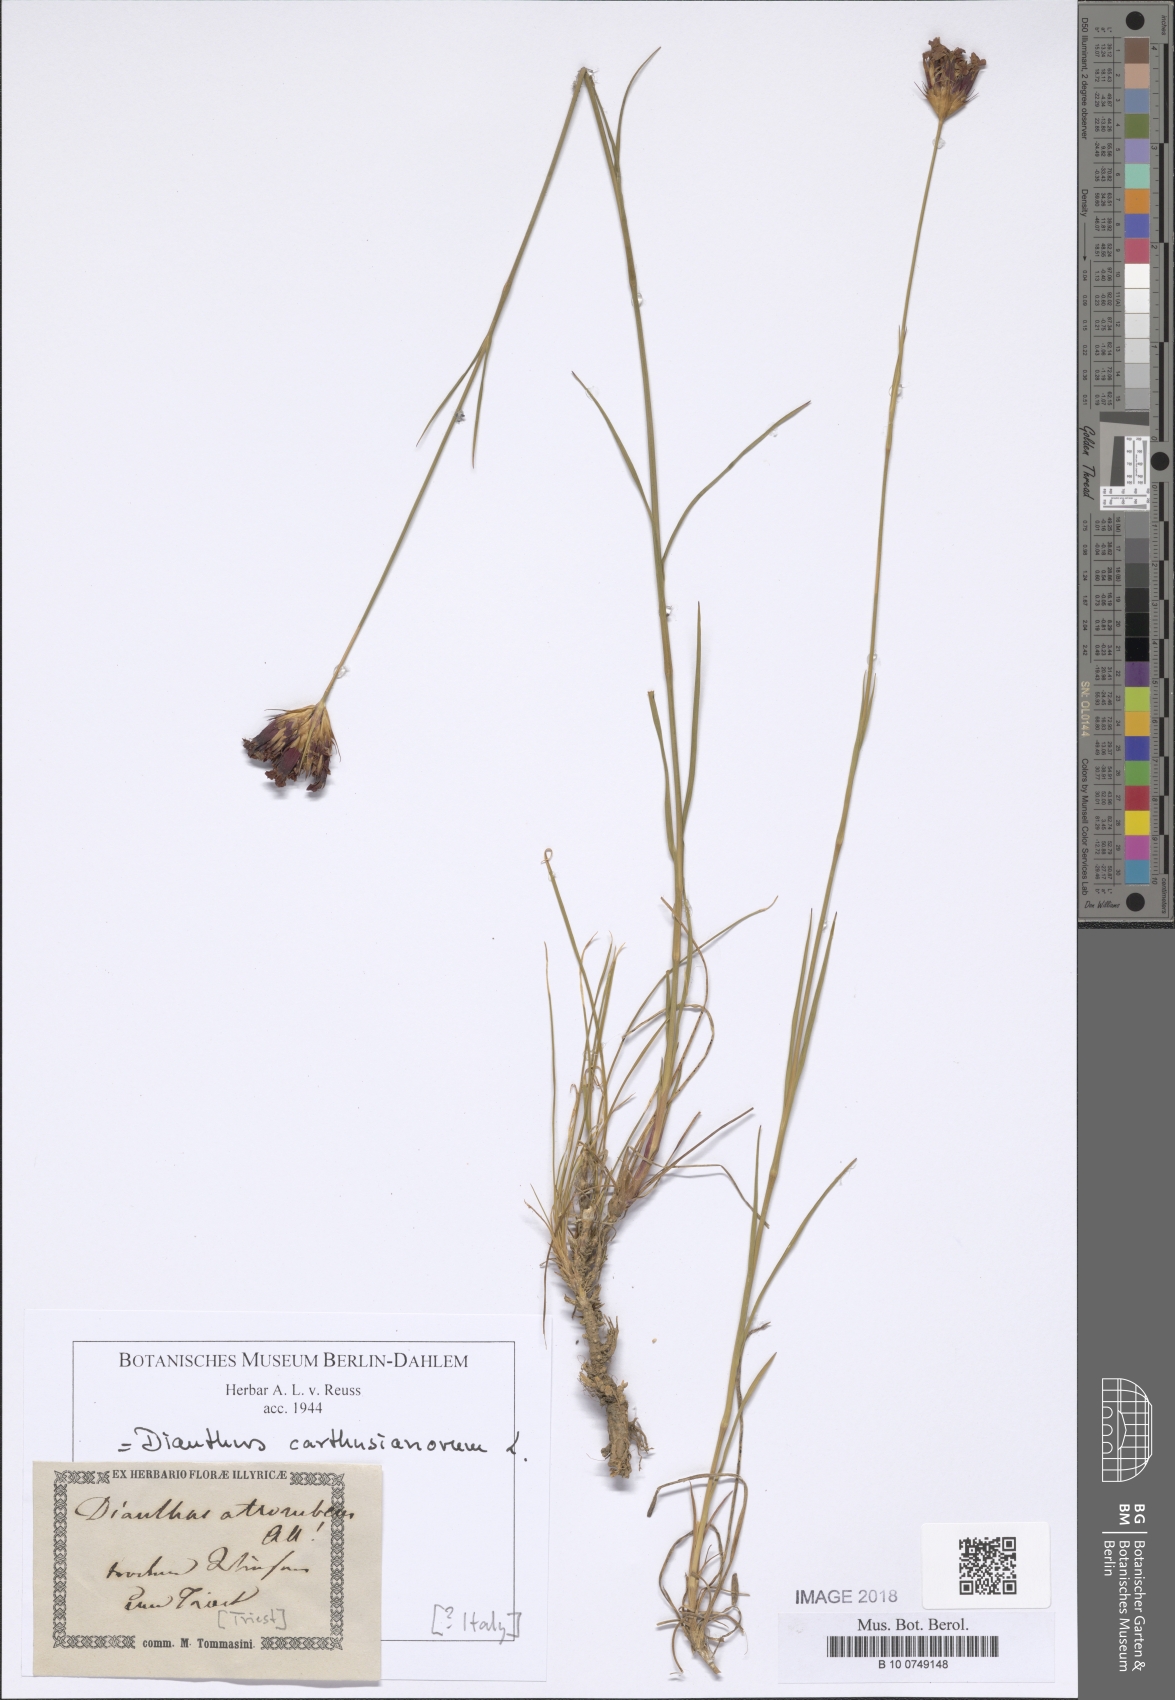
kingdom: Plantae
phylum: Tracheophyta
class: Magnoliopsida
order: Caryophyllales
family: Caryophyllaceae
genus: Dianthus
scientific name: Dianthus carthusianorum
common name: Carthusian pink
